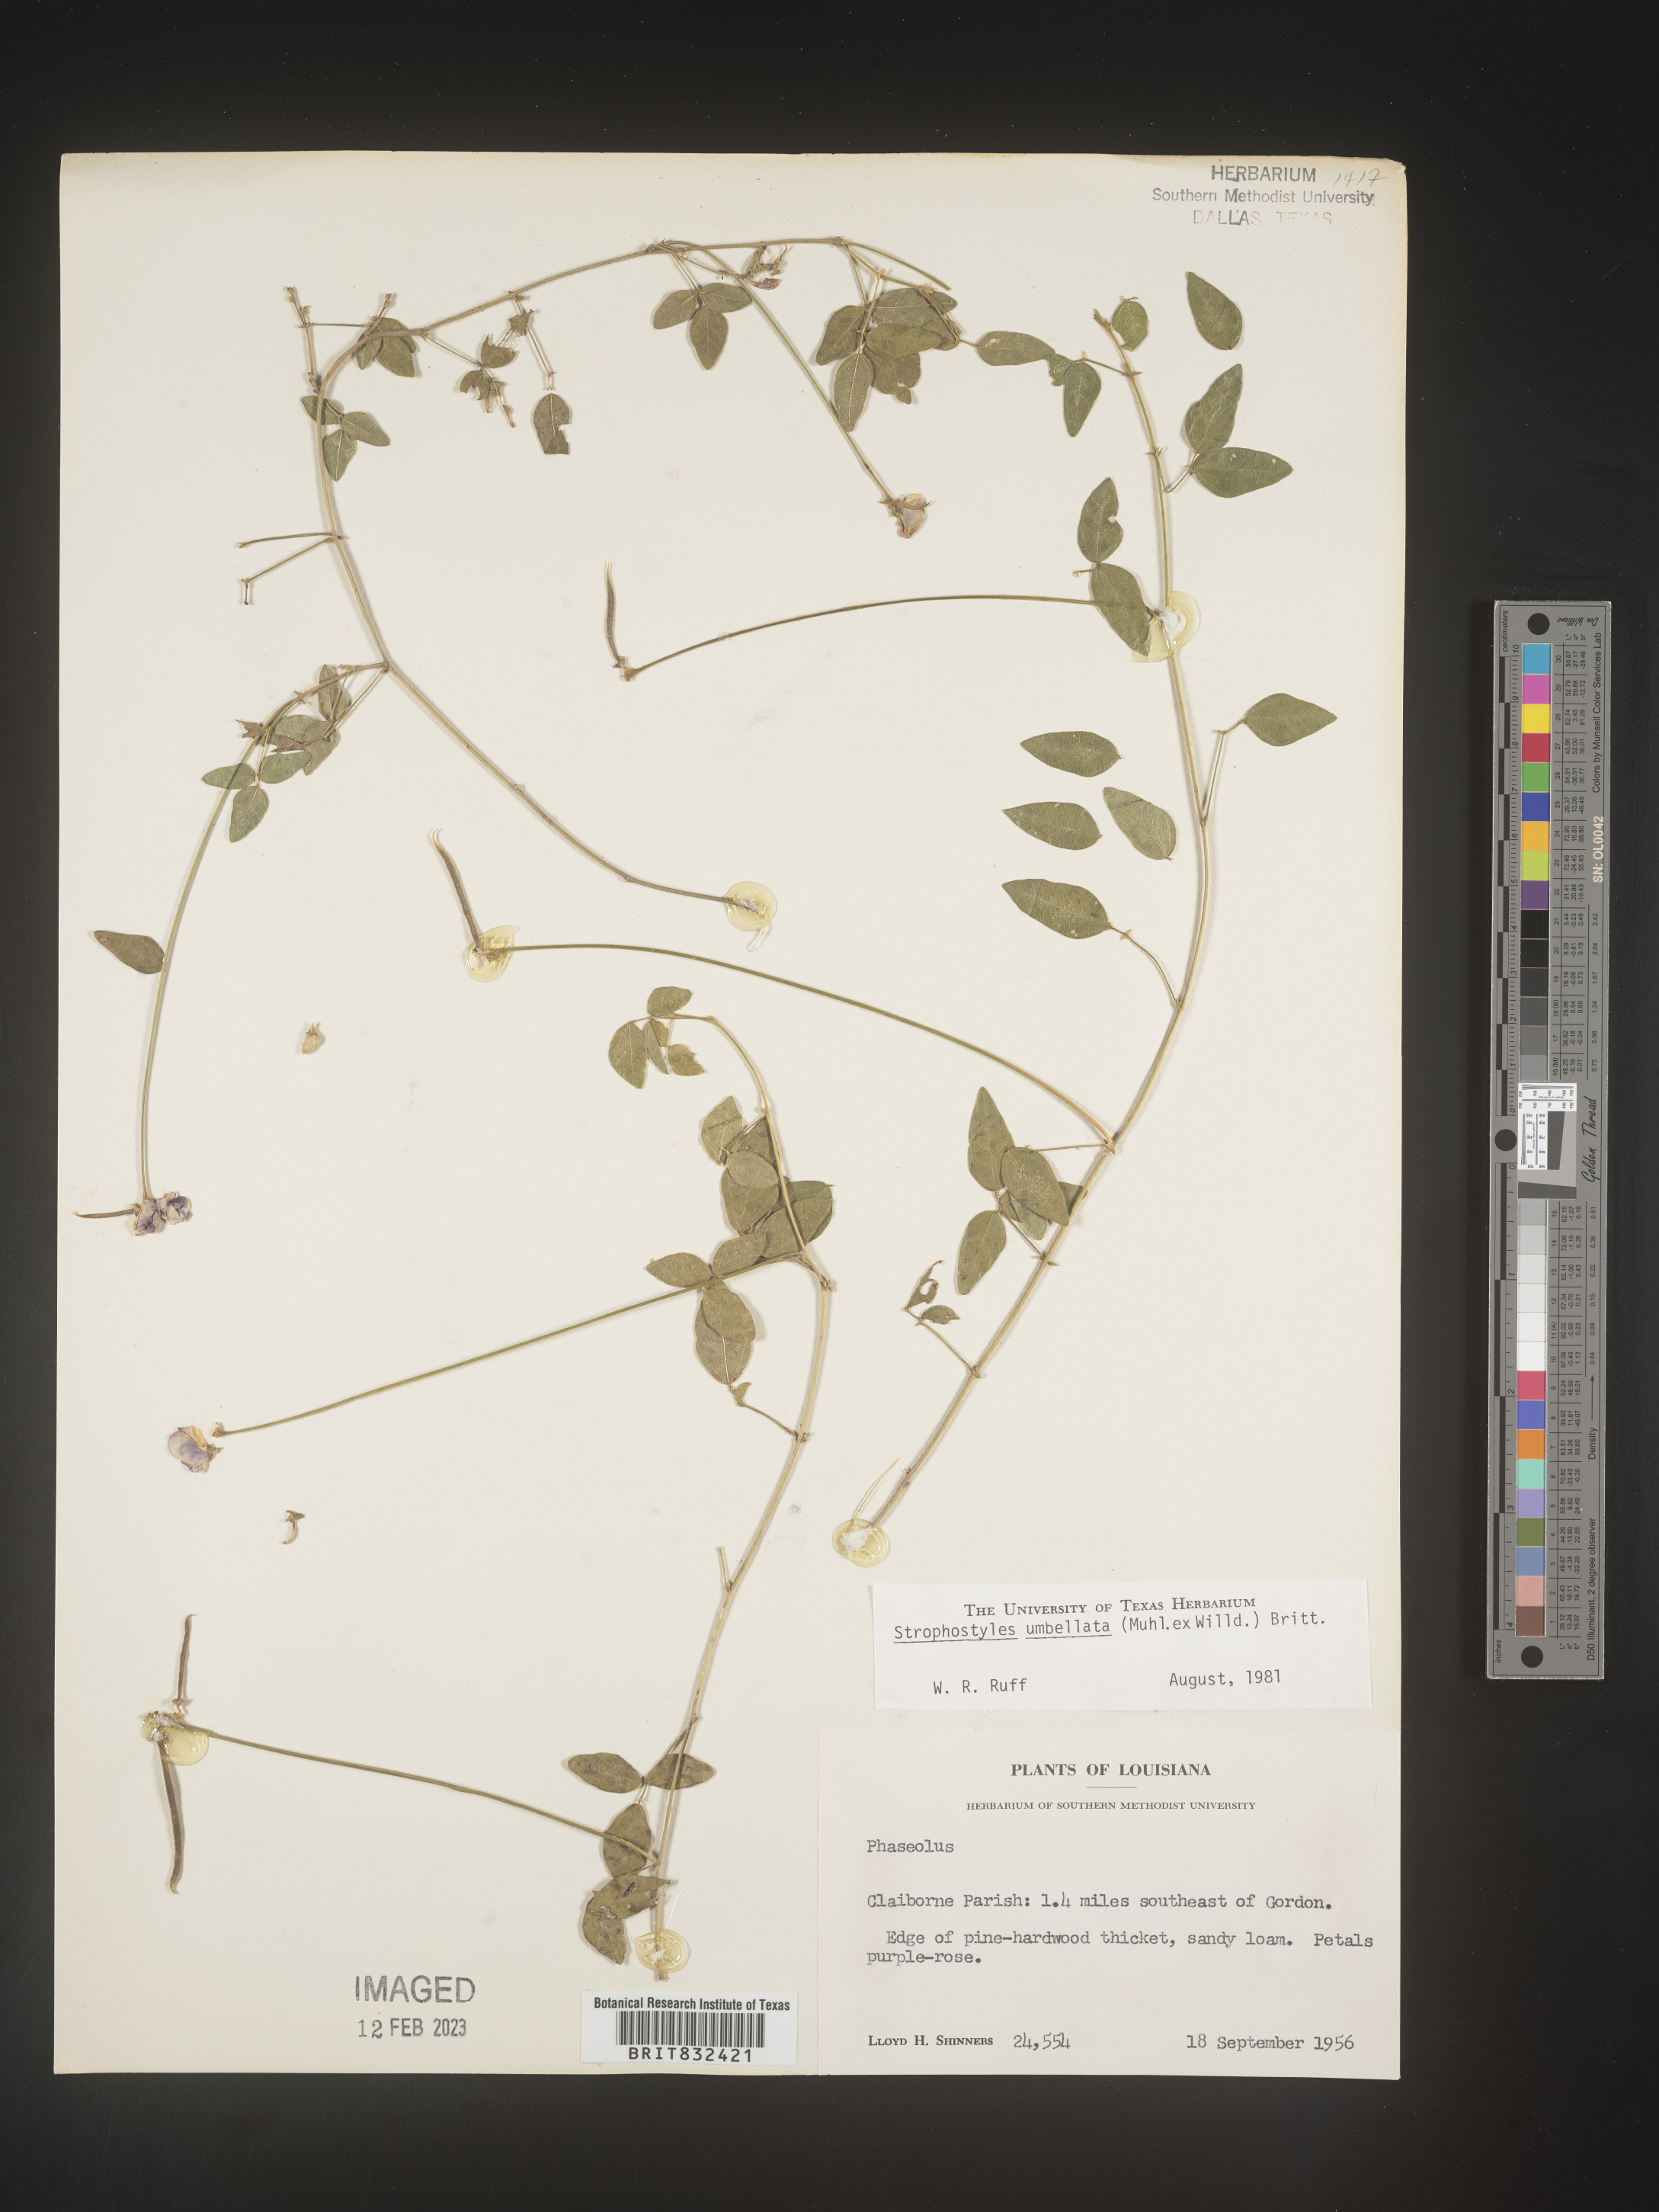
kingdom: Plantae
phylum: Tracheophyta
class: Magnoliopsida
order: Fabales
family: Fabaceae
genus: Strophostyles
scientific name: Strophostyles umbellata
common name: Perennial wild bean
